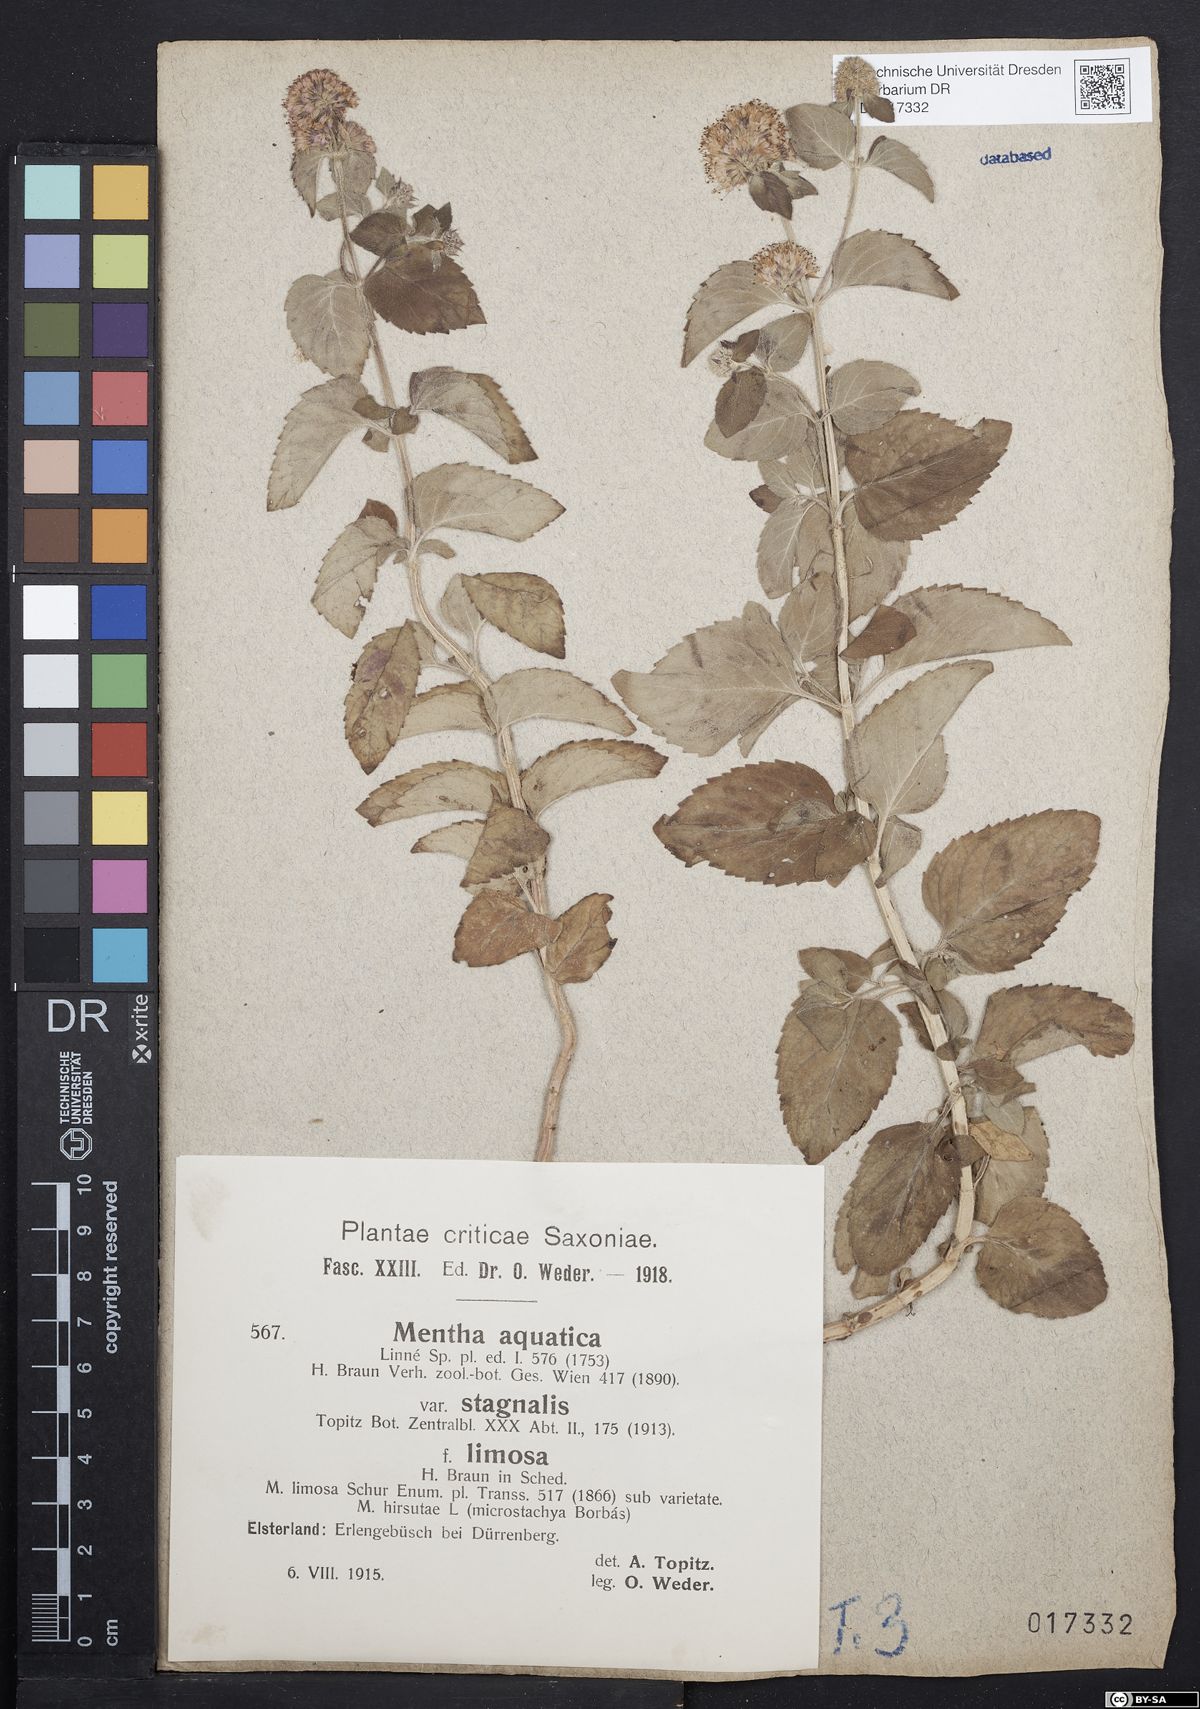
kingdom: Plantae
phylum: Tracheophyta
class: Magnoliopsida
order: Lamiales
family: Lamiaceae
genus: Mentha
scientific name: Mentha aquatica
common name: Water mint
